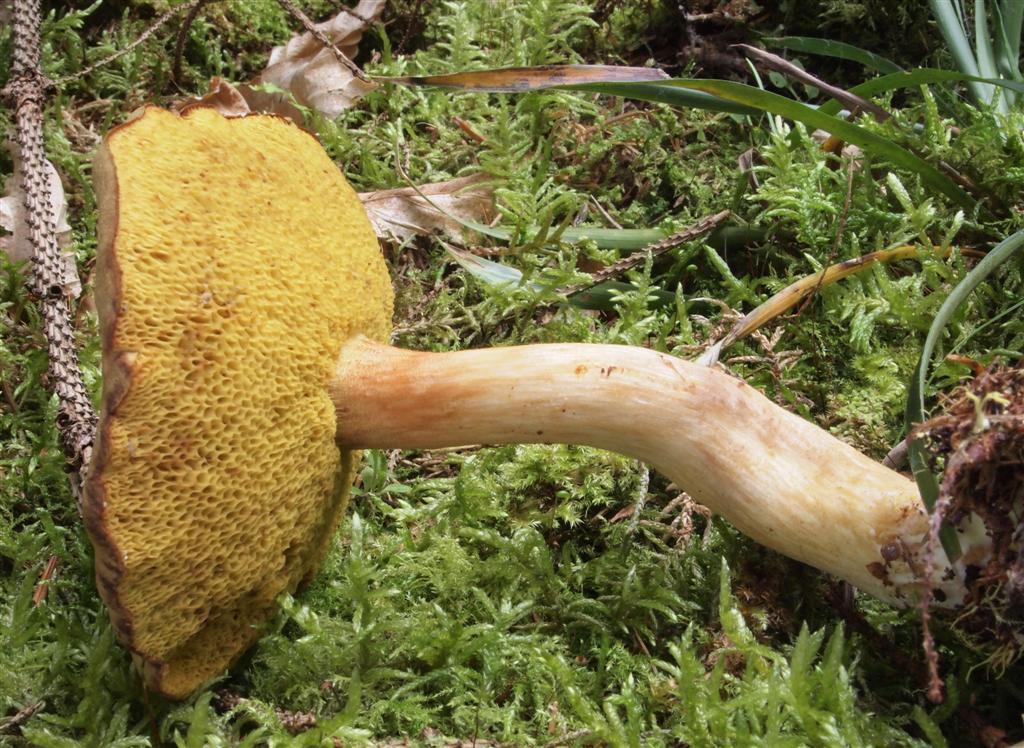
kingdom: Fungi
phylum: Basidiomycota
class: Agaricomycetes
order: Boletales
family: Boletaceae
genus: Xerocomus
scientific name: Xerocomus ferrugineus
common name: vaskeskinds-rørhat
